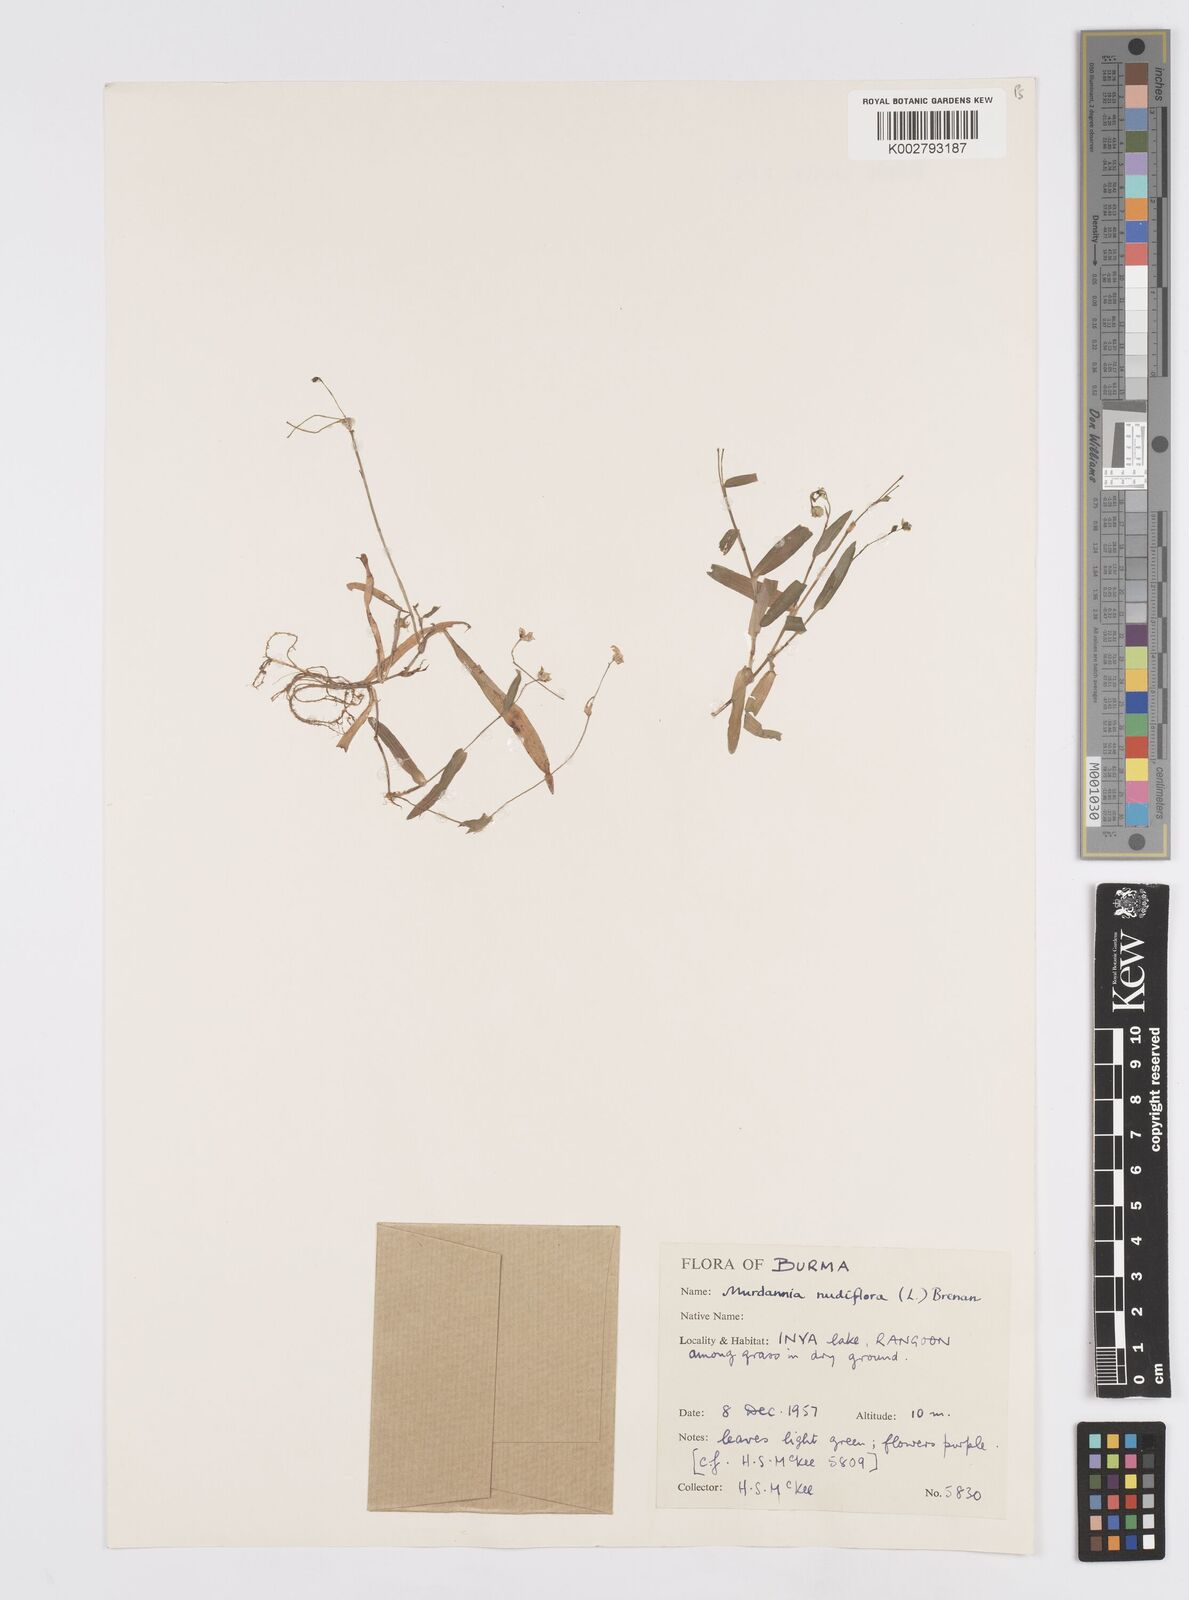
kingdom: Plantae
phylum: Tracheophyta
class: Liliopsida
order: Commelinales
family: Commelinaceae
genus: Murdannia
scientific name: Murdannia nudiflora
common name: Nakedstem dewflower
